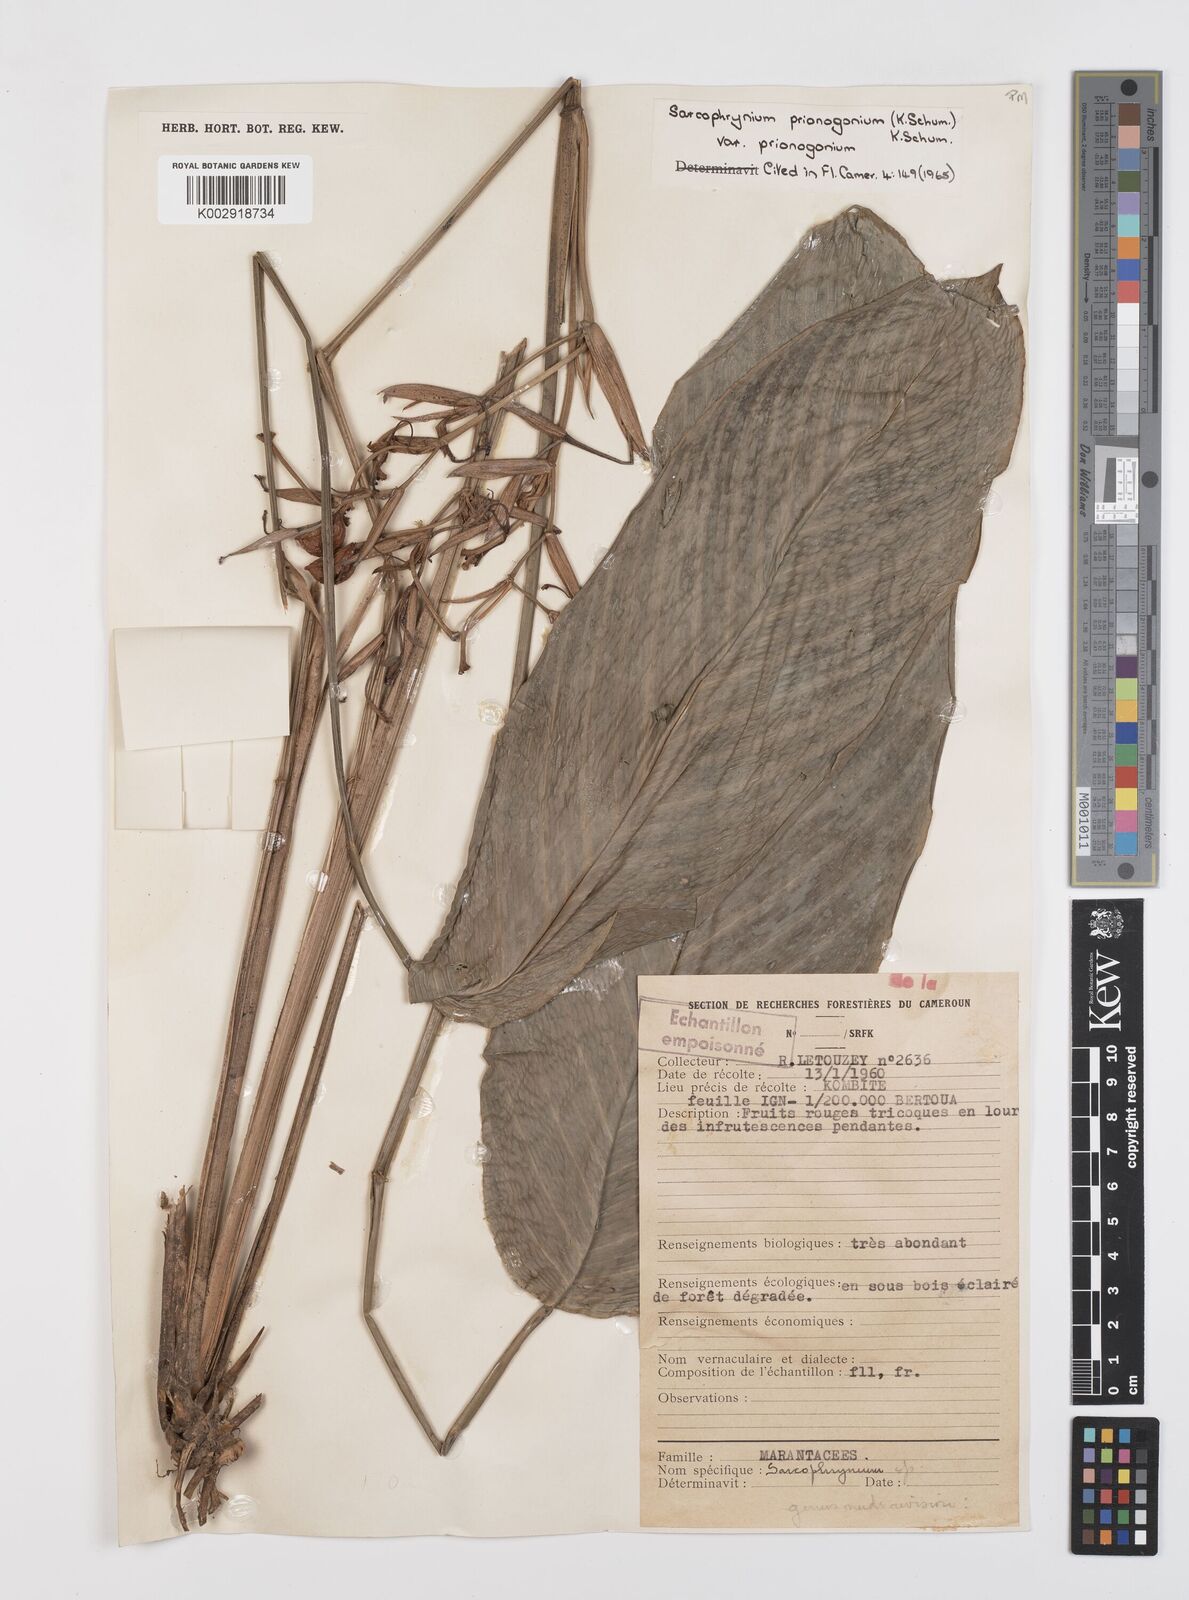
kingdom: Plantae
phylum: Tracheophyta
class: Liliopsida
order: Zingiberales
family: Marantaceae
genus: Sarcophrynium
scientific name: Sarcophrynium prionogonium
